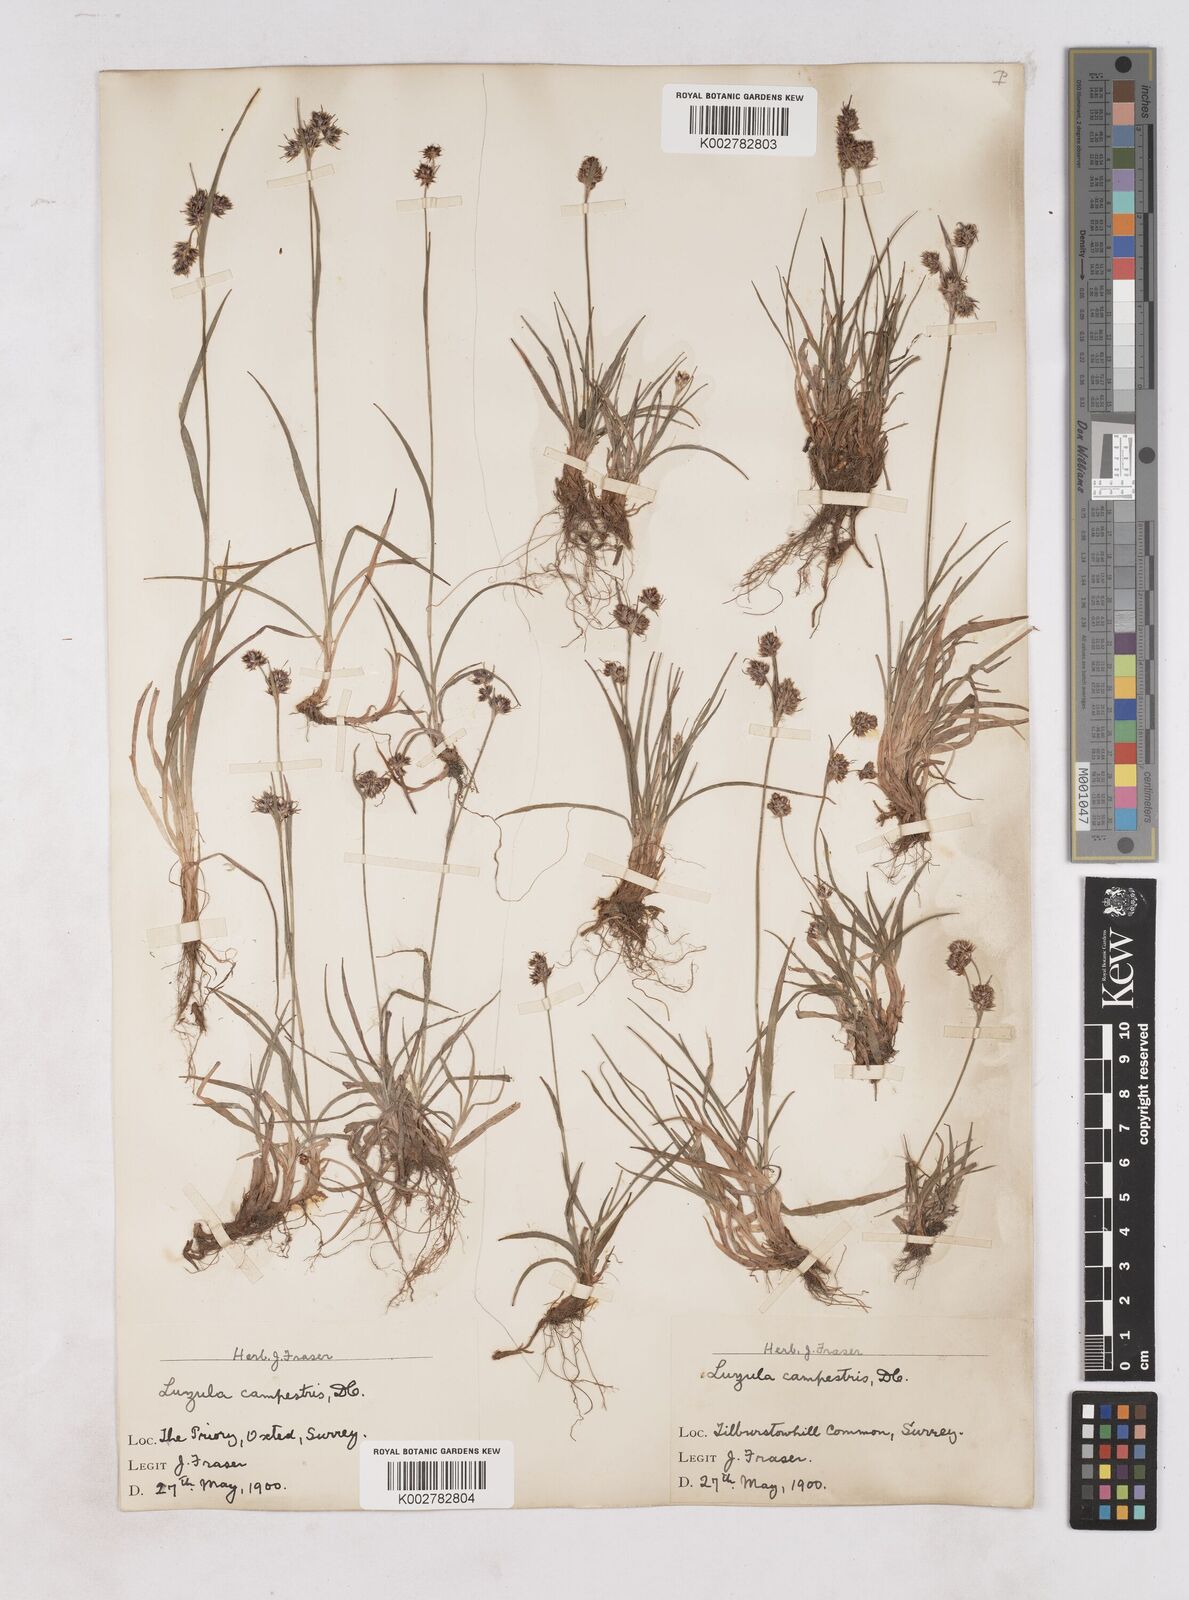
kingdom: Plantae
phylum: Tracheophyta
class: Liliopsida
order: Poales
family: Juncaceae
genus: Luzula
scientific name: Luzula campestris
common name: Field wood-rush
